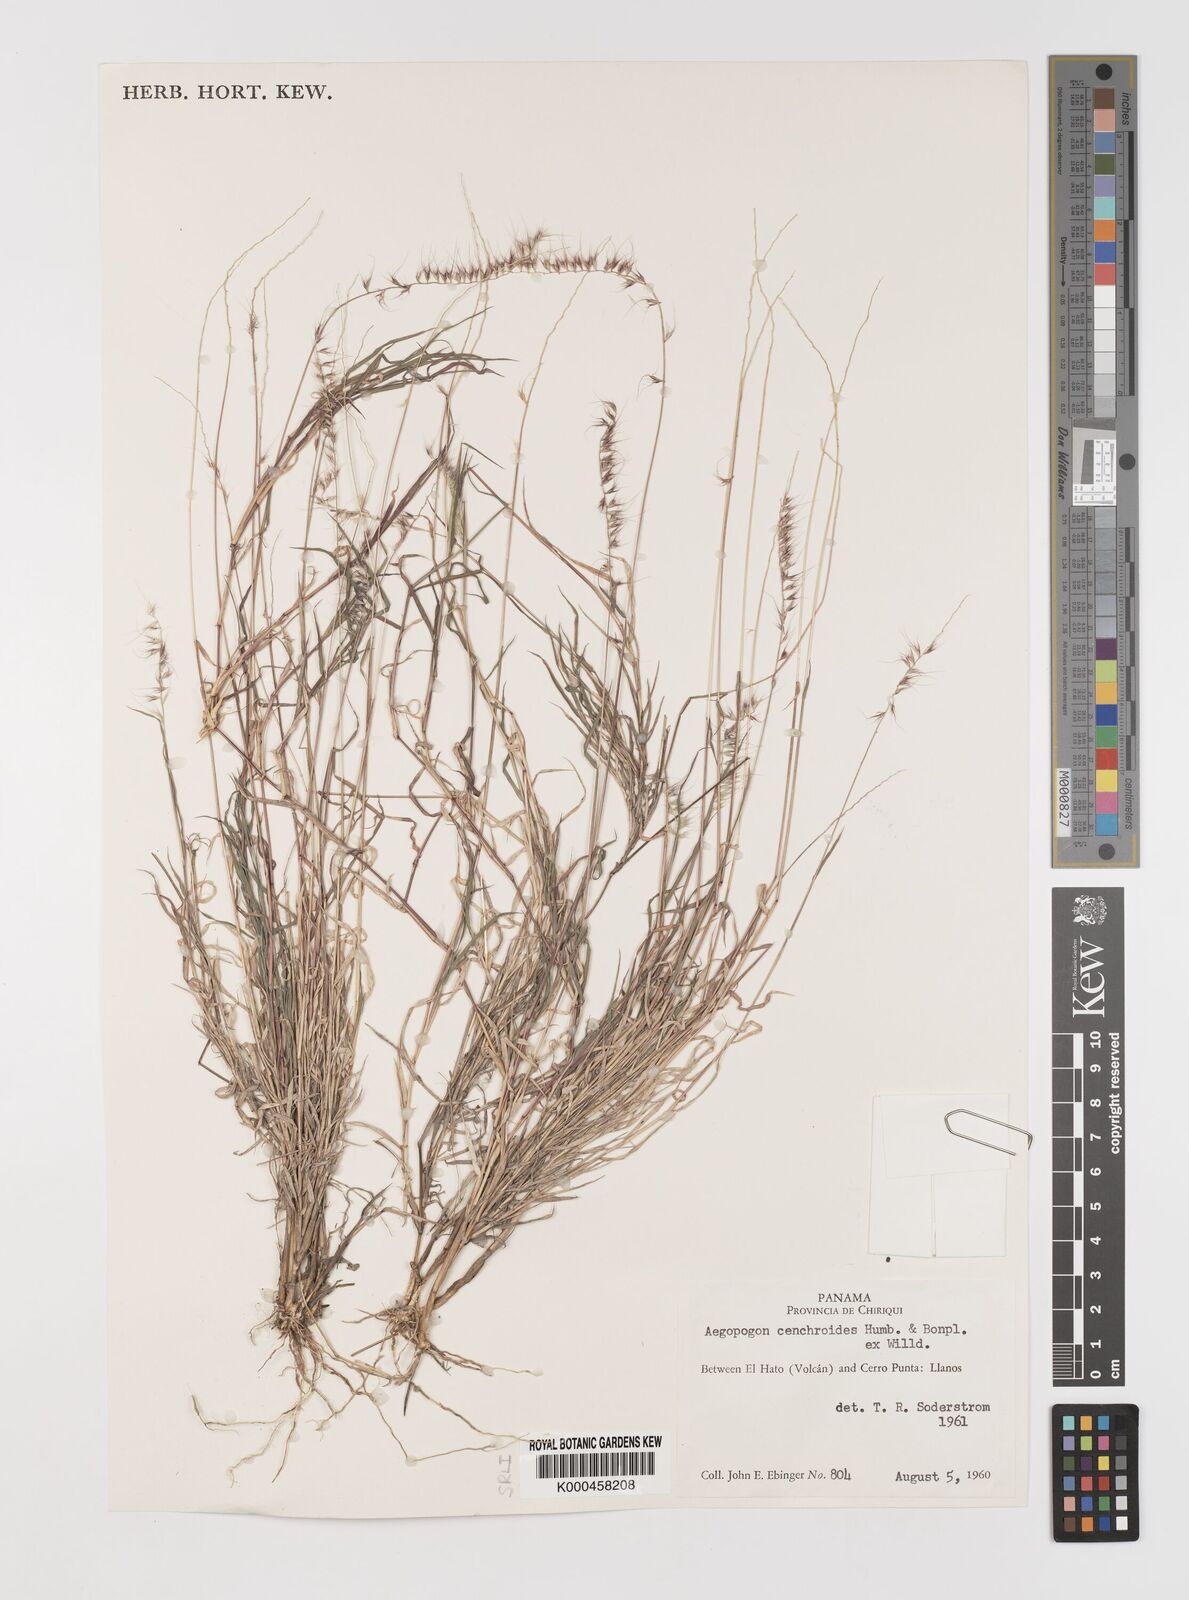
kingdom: Plantae
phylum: Tracheophyta
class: Liliopsida
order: Poales
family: Poaceae
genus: Muhlenbergia
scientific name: Muhlenbergia
